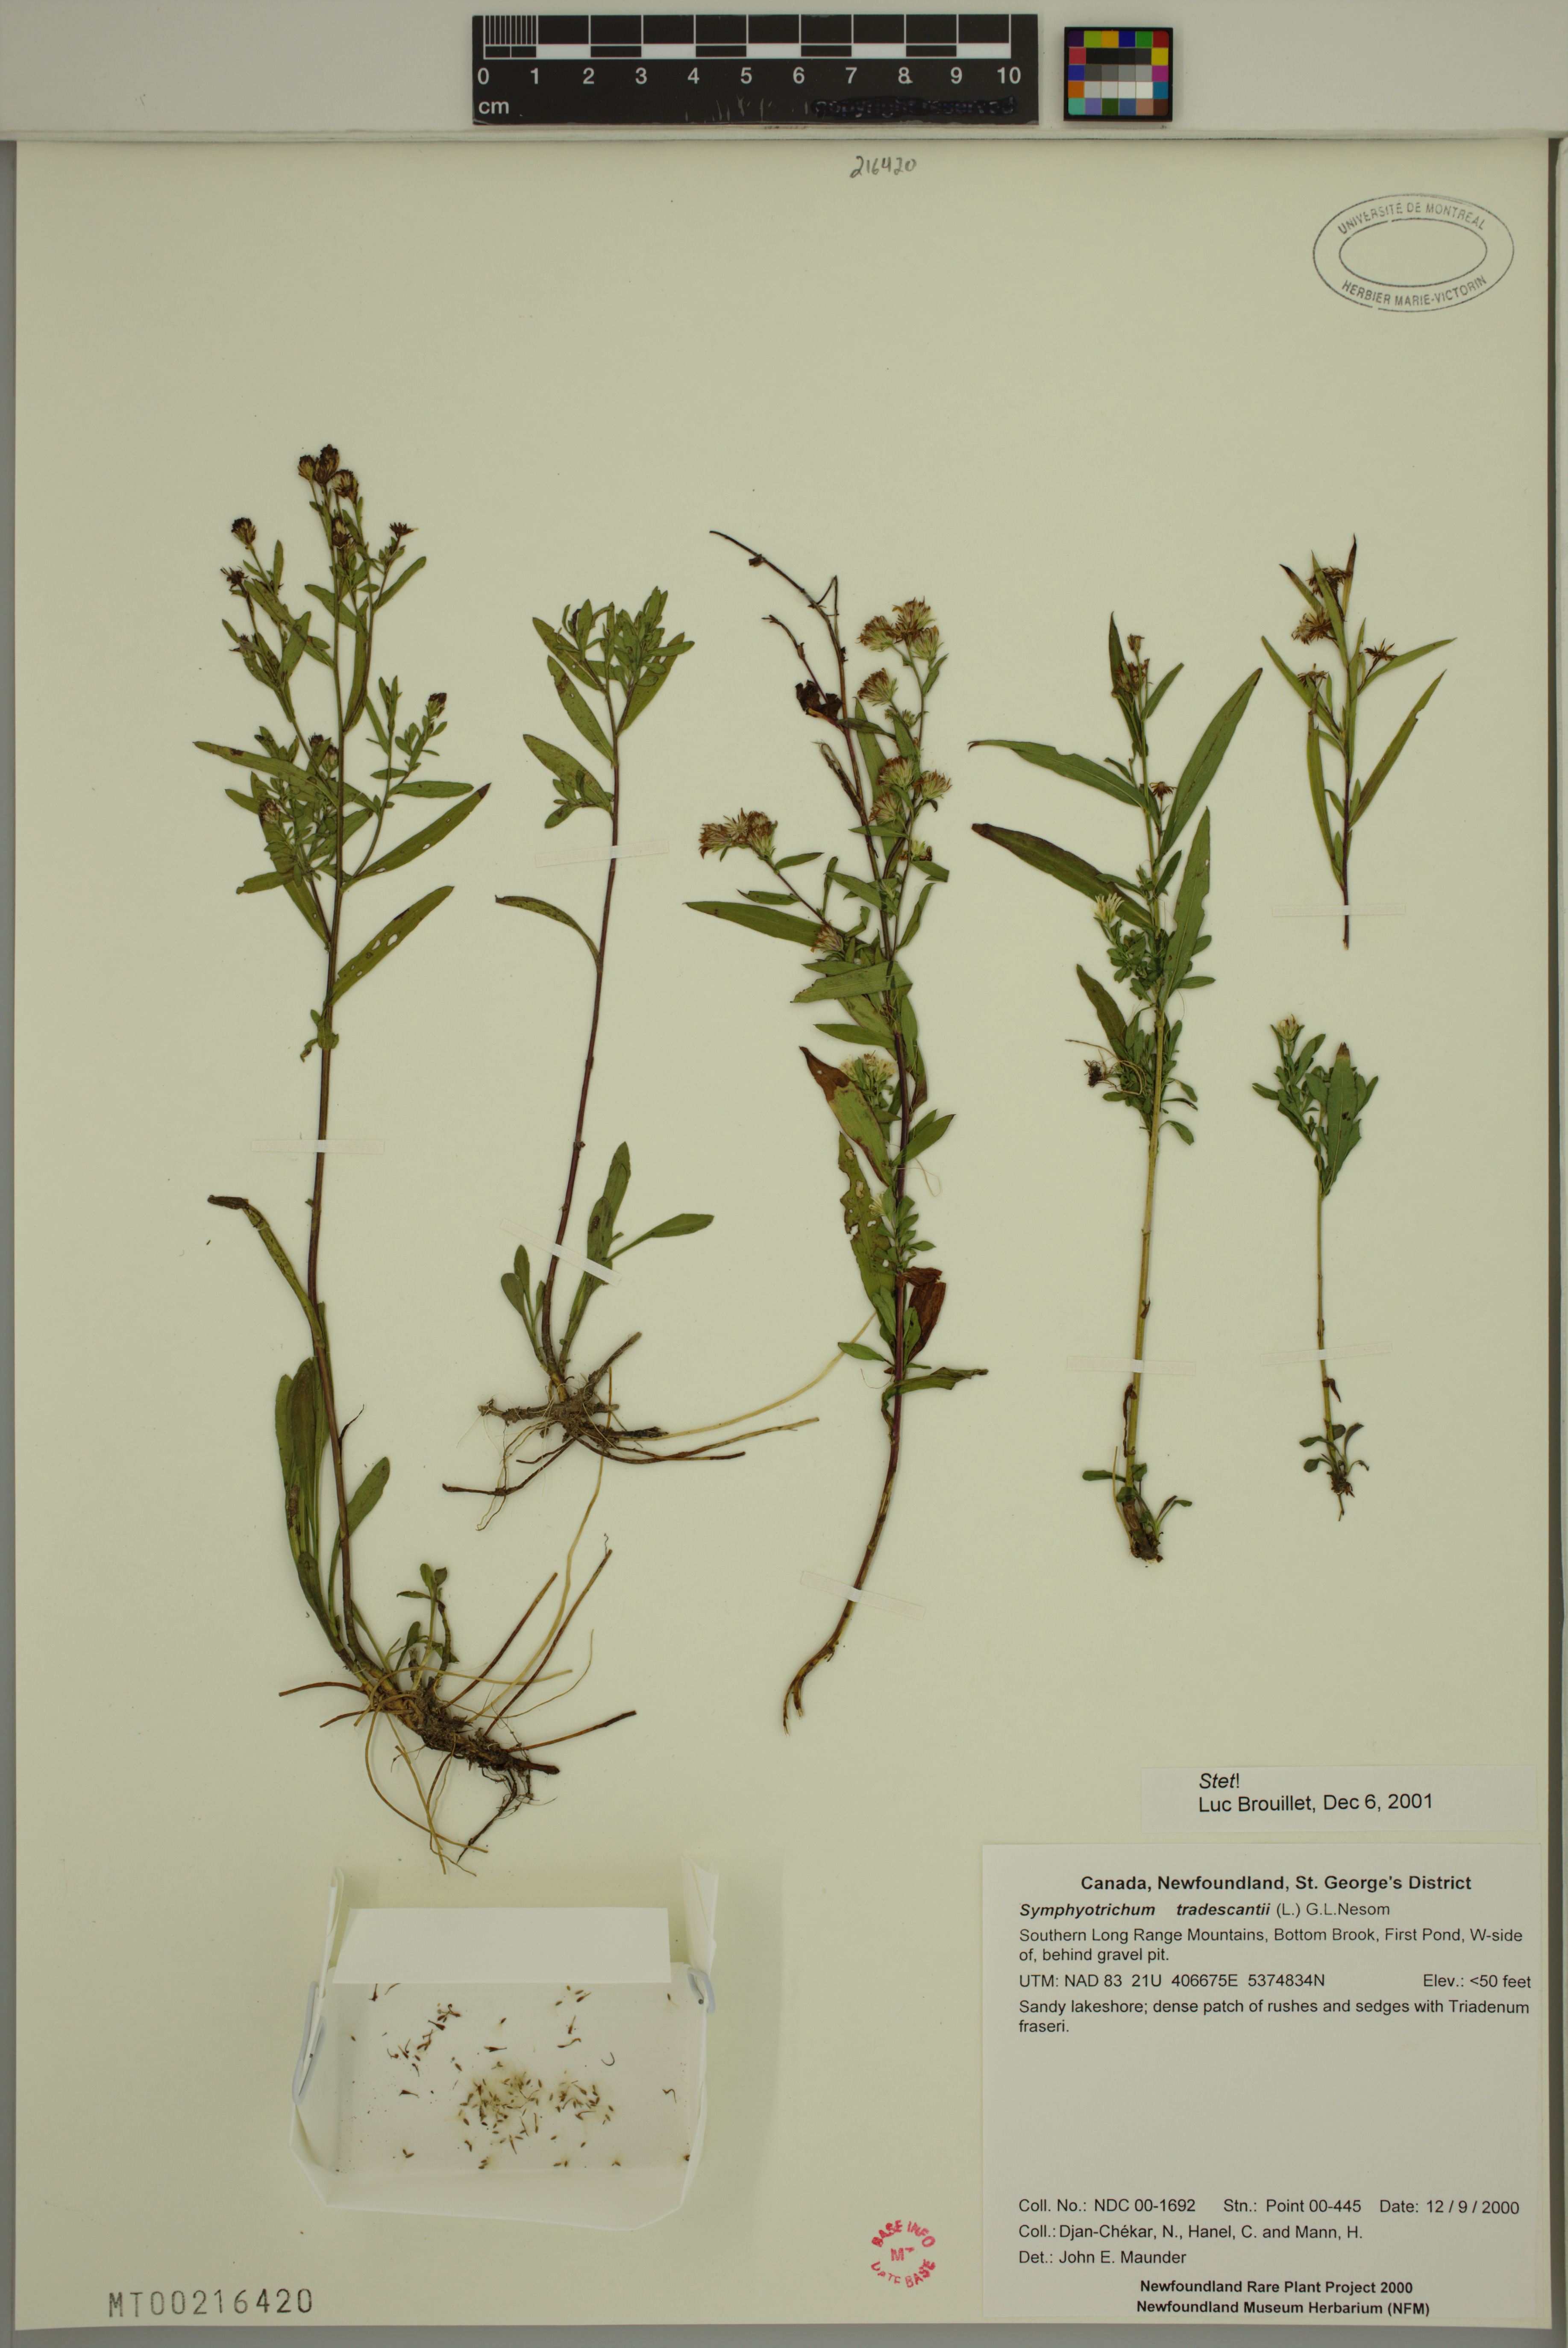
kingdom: Plantae
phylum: Tracheophyta
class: Magnoliopsida
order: Asterales
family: Asteraceae
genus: Symphyotrichum
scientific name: Symphyotrichum tradescantii
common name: Shore aster
